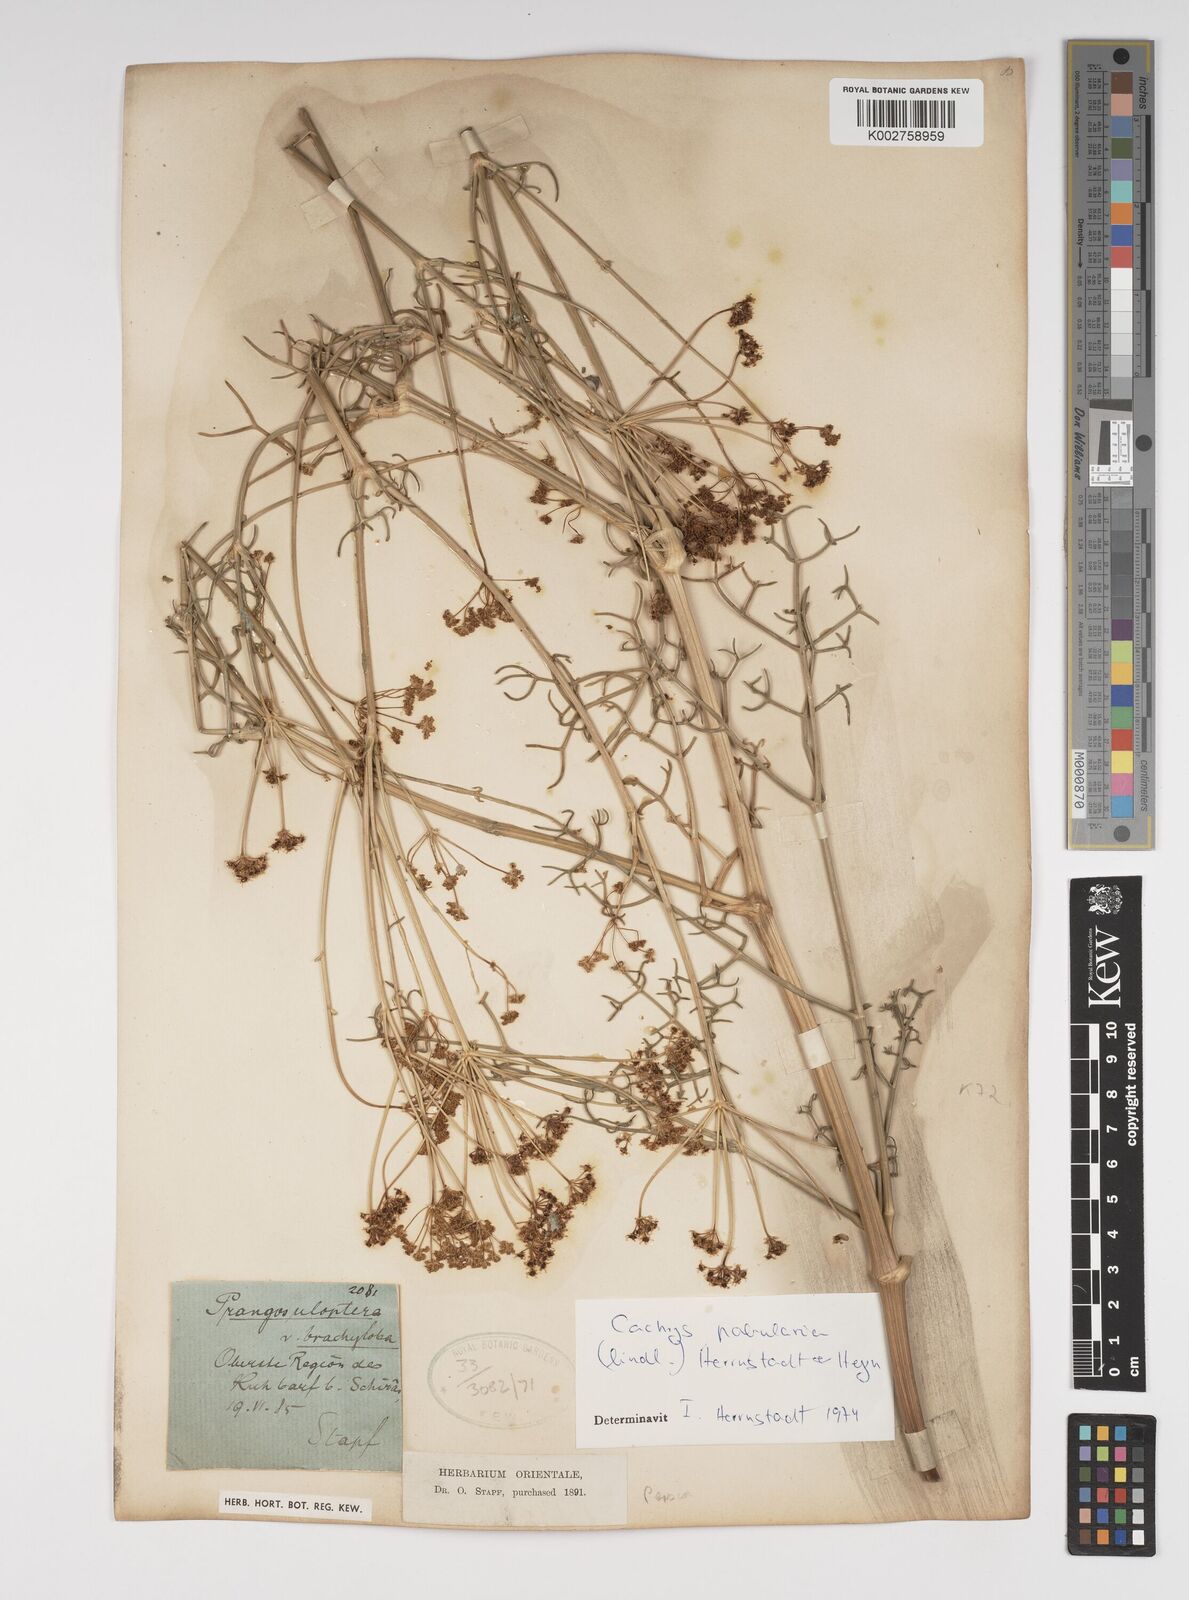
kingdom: Plantae
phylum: Tracheophyta
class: Magnoliopsida
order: Apiales
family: Apiaceae
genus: Prangos
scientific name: Prangos pabularia
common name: Yugan
